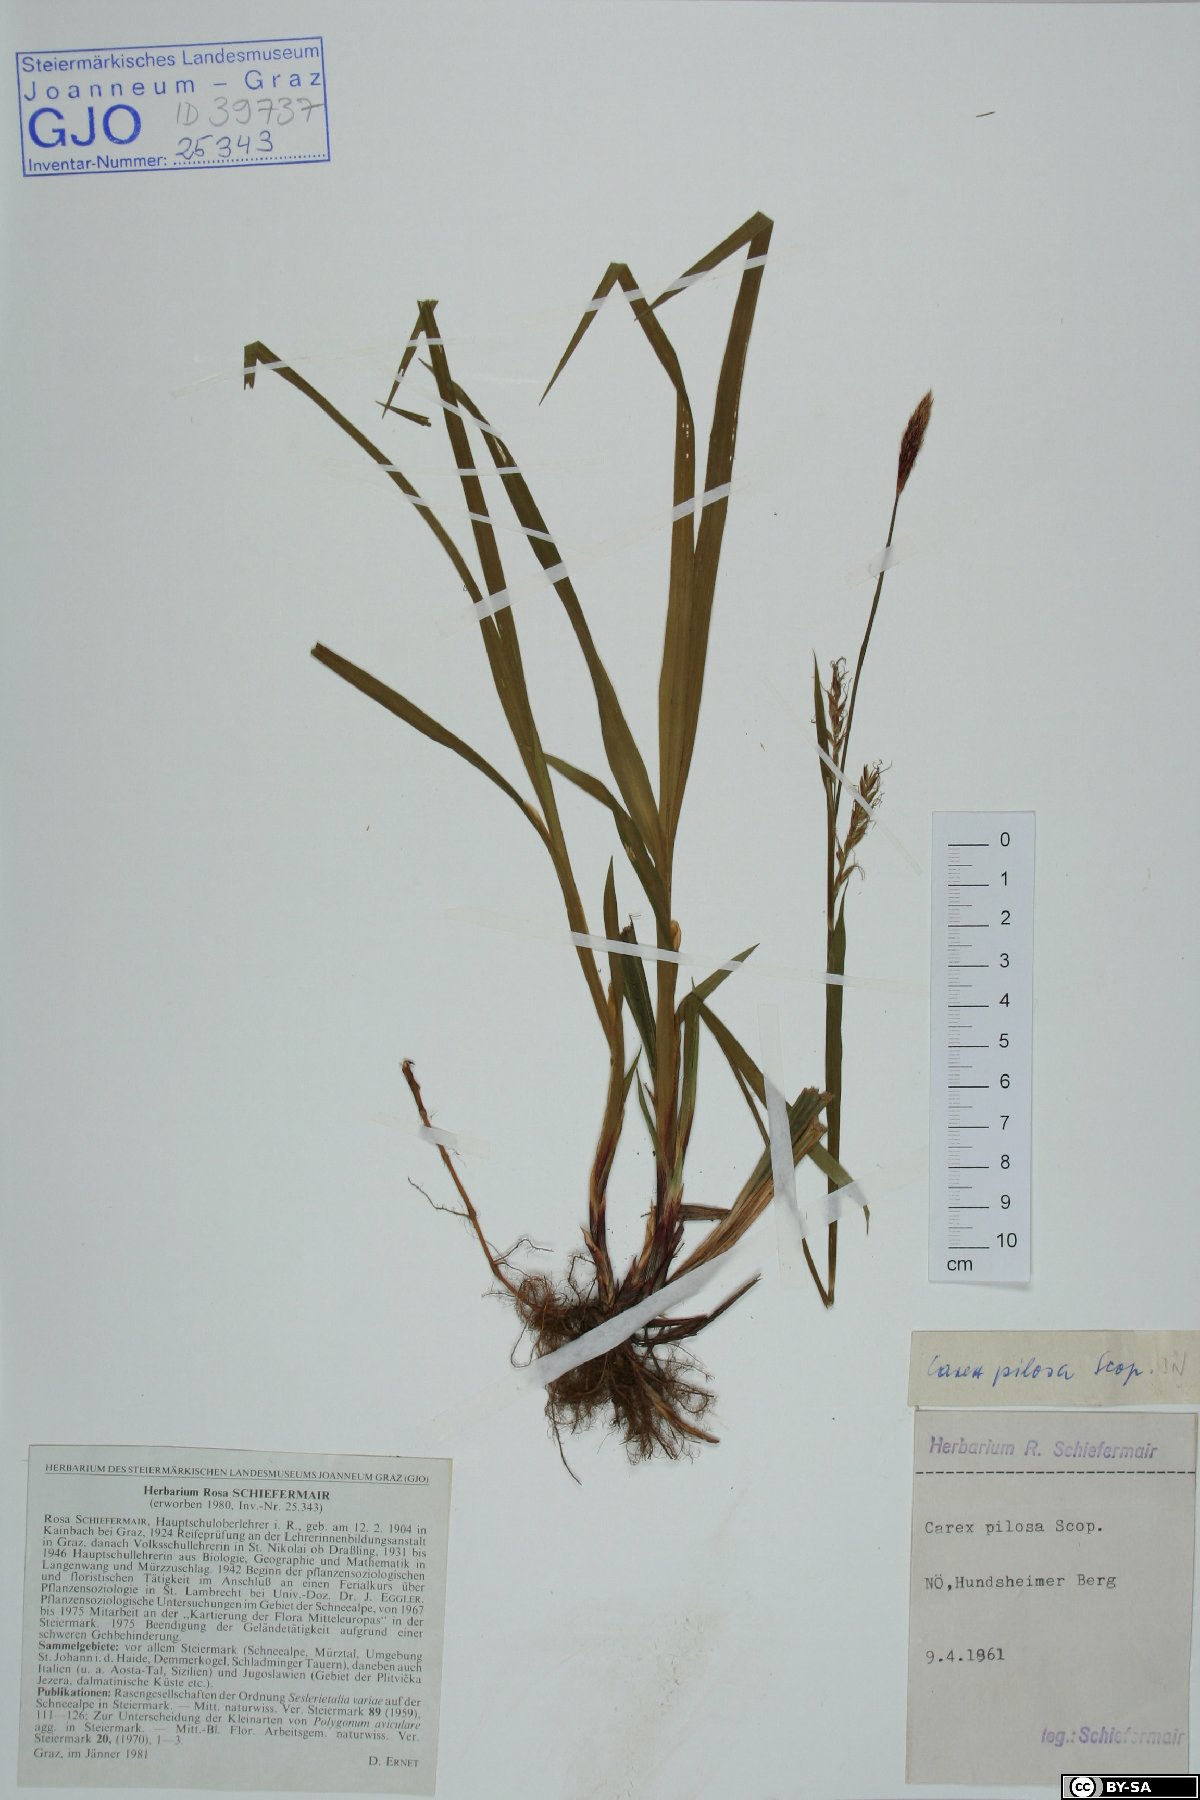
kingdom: Plantae
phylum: Tracheophyta
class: Liliopsida
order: Poales
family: Cyperaceae
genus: Carex
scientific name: Carex pilosa
